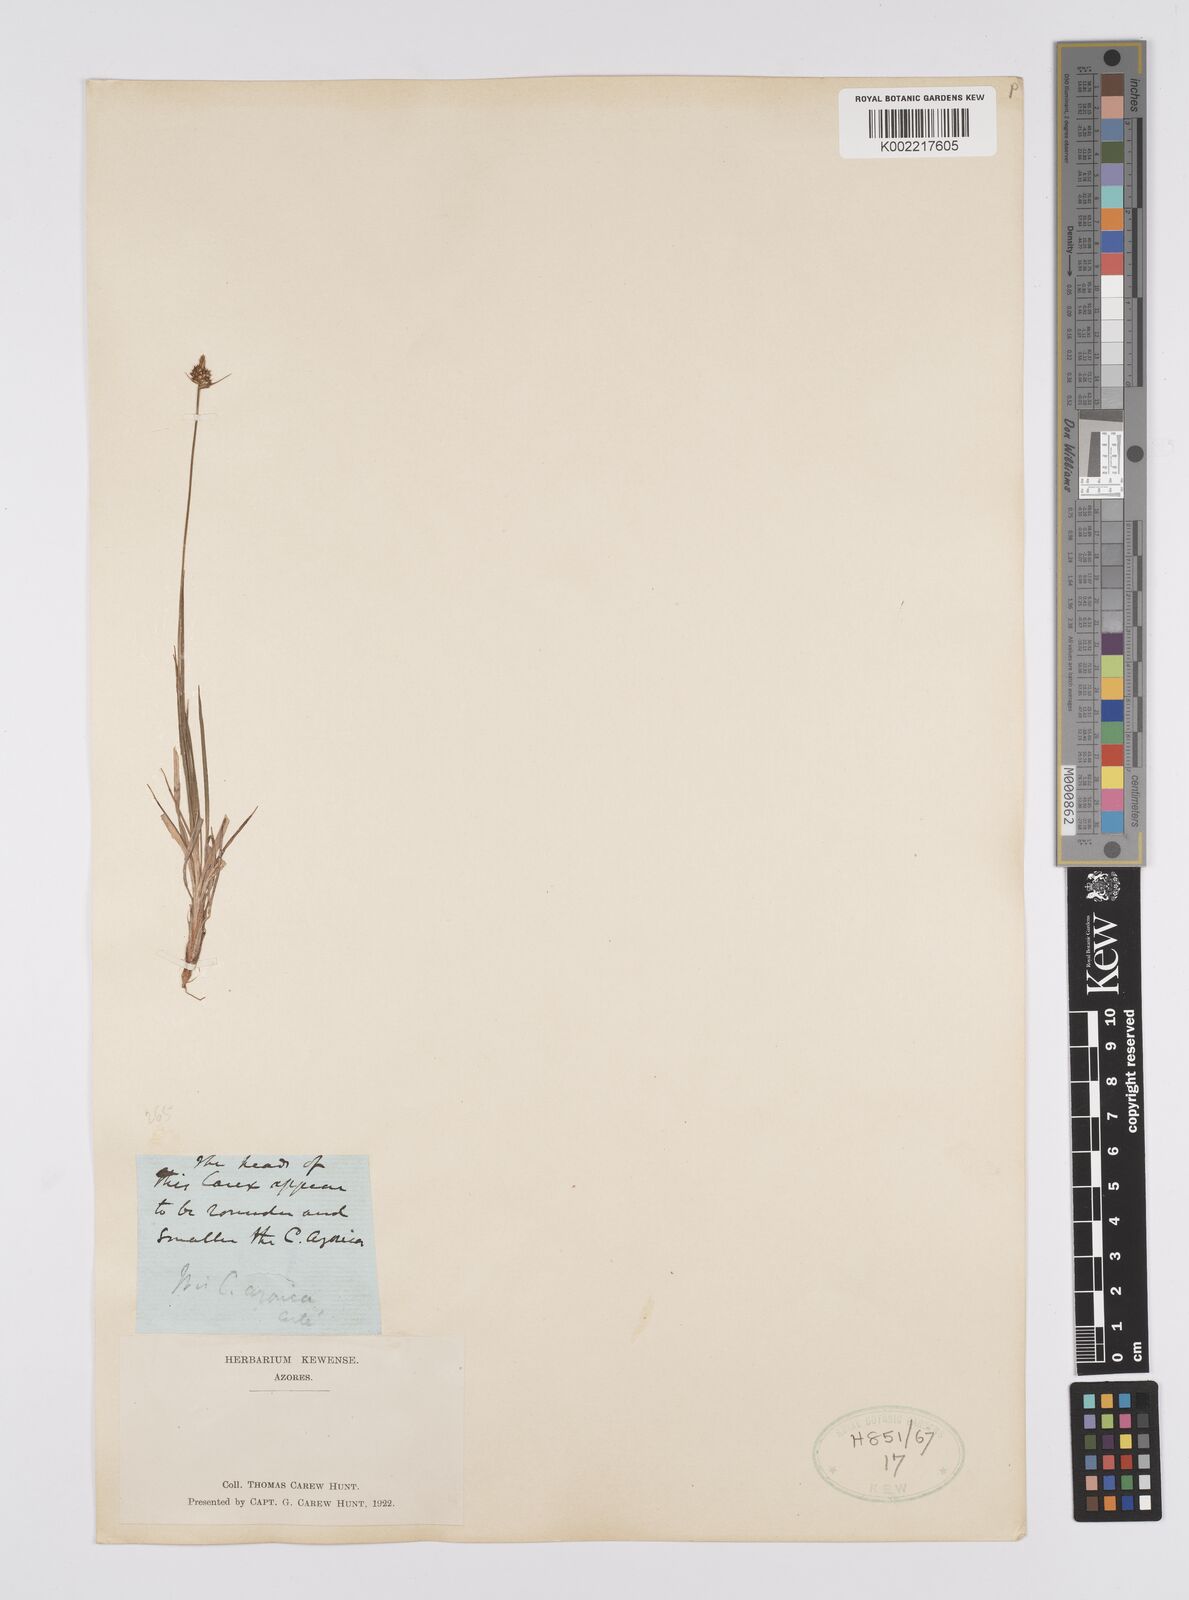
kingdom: Plantae
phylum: Tracheophyta
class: Liliopsida
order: Poales
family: Cyperaceae
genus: Carex
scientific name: Carex pilulifera
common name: Pill sedge
